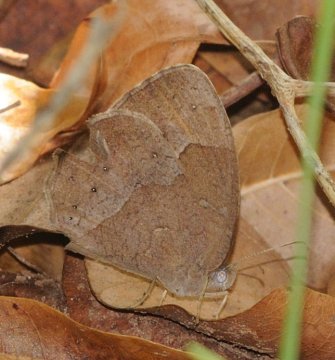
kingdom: Animalia
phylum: Arthropoda
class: Insecta
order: Lepidoptera
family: Nymphalidae
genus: Bicyclus
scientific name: Bicyclus
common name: Bush Browns
